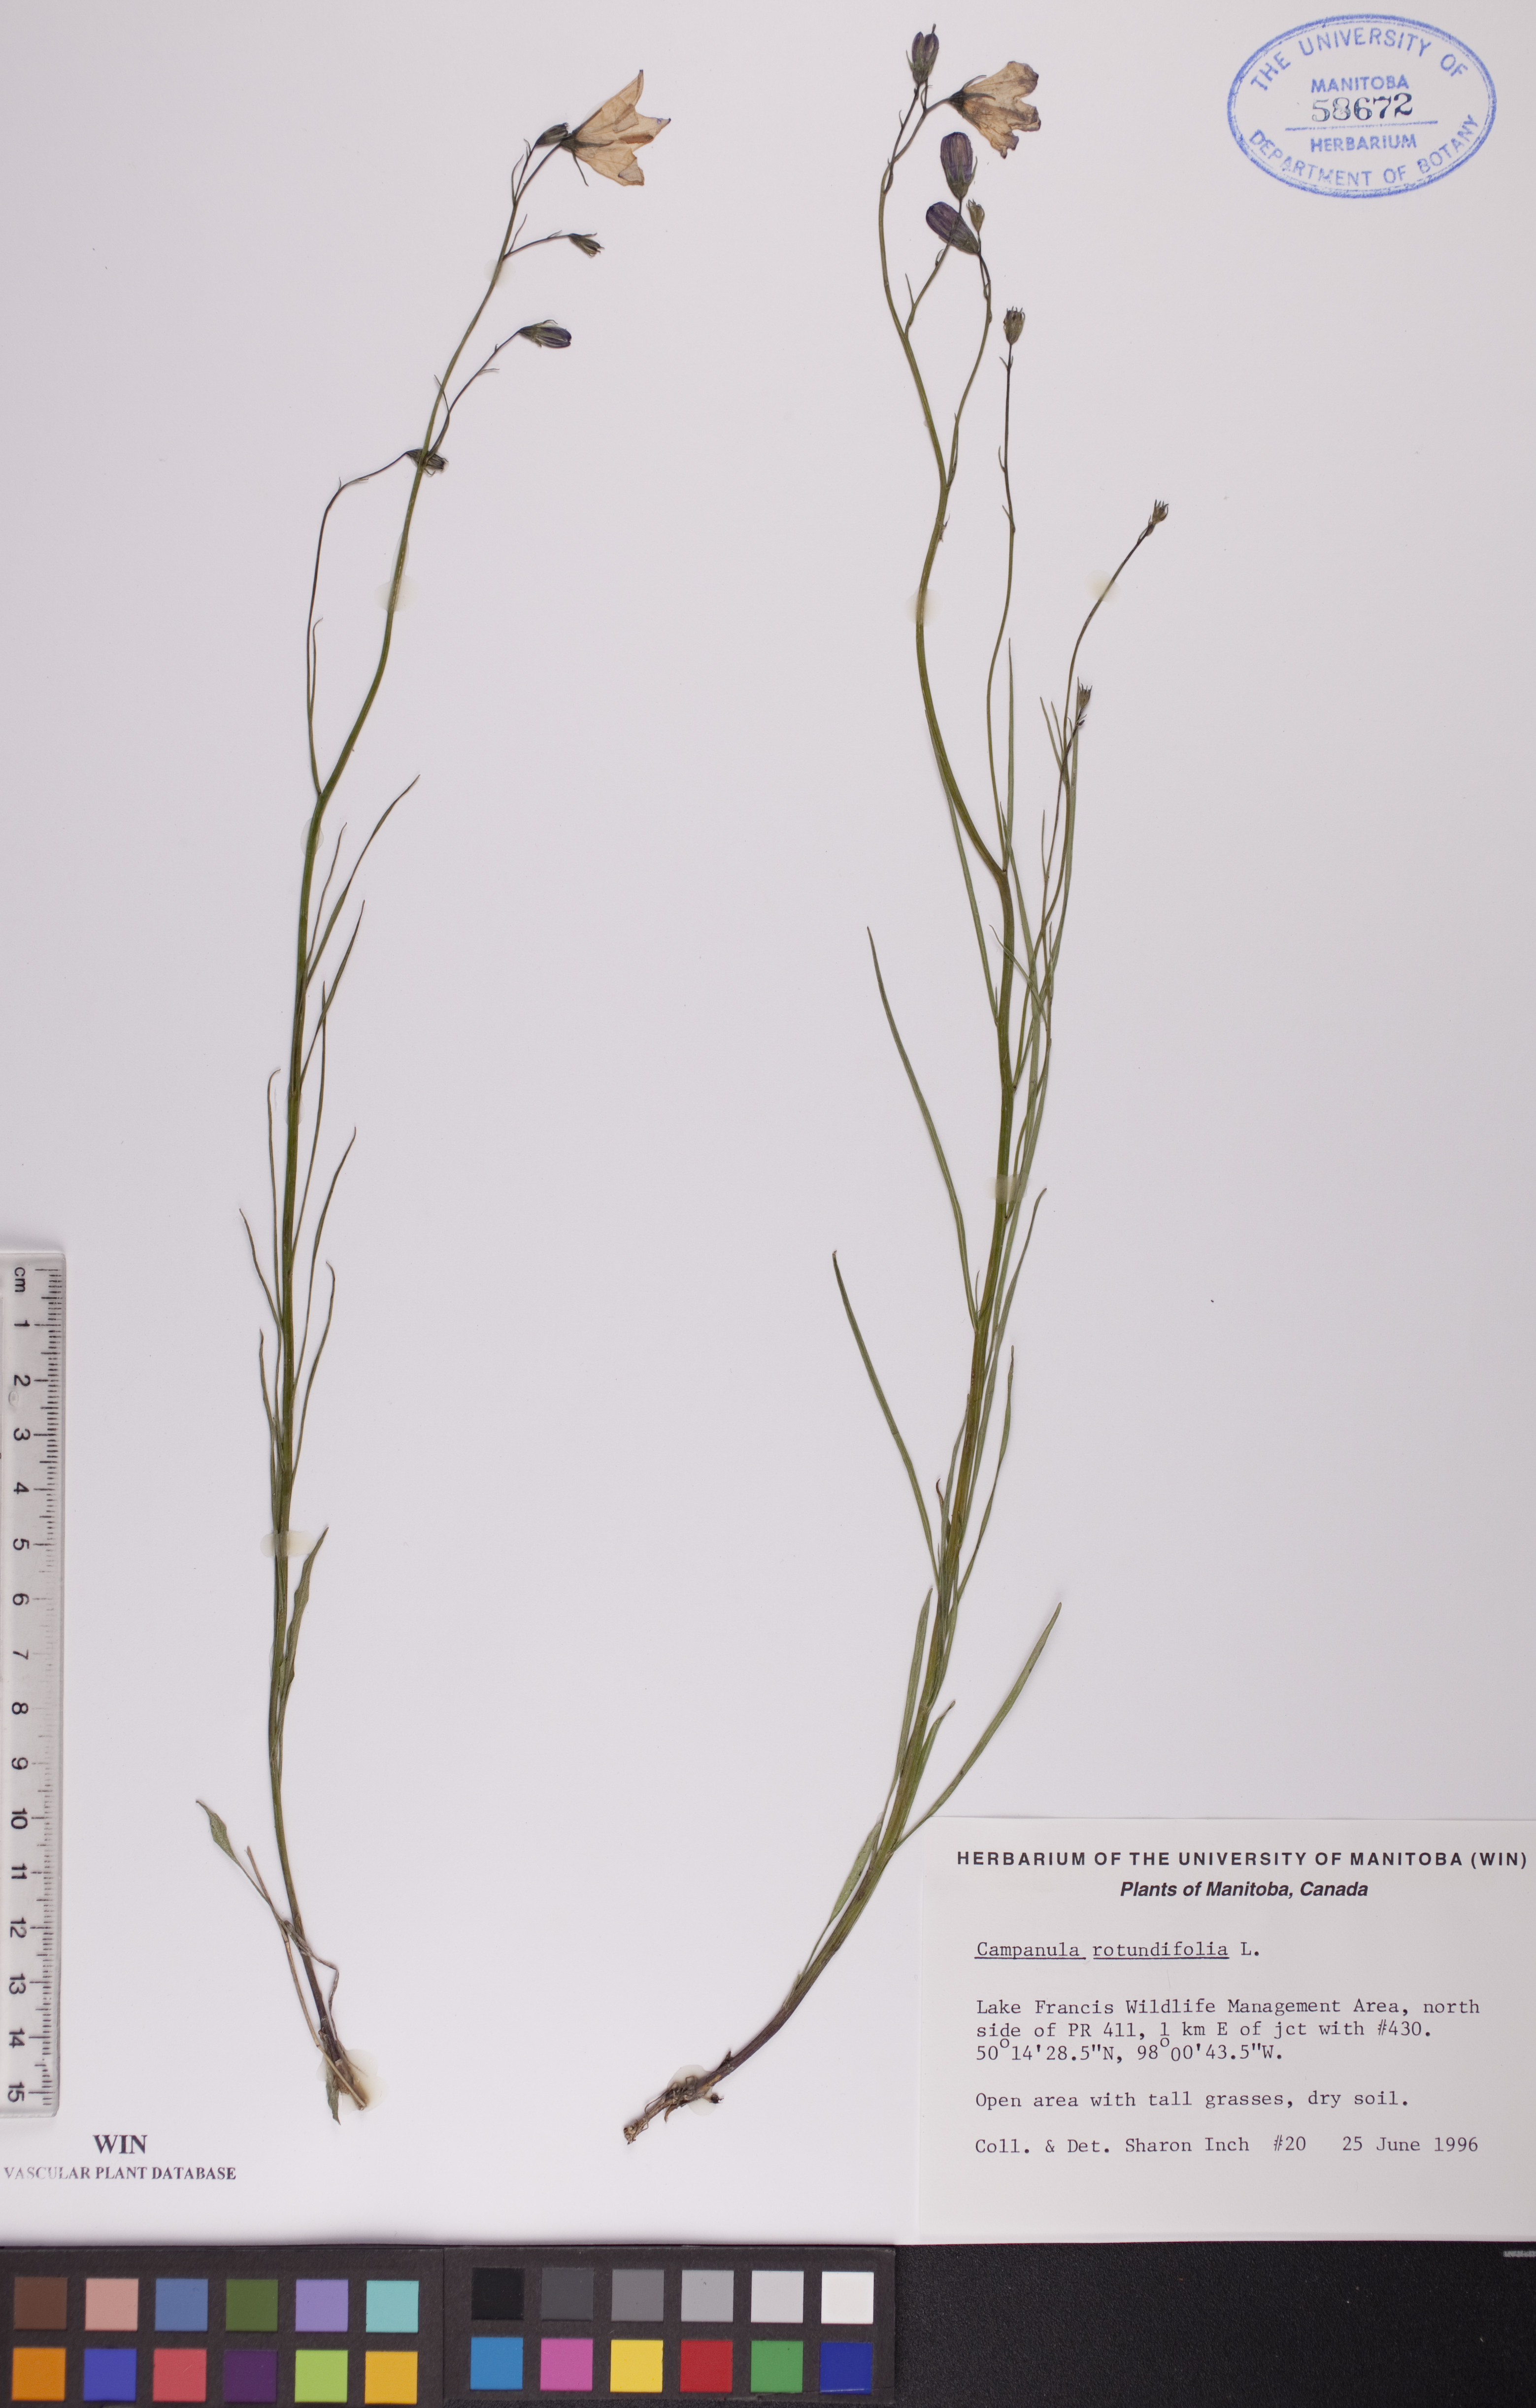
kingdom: Plantae
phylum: Tracheophyta
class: Magnoliopsida
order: Asterales
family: Campanulaceae
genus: Campanula
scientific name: Campanula rotundifolia
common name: Harebell
